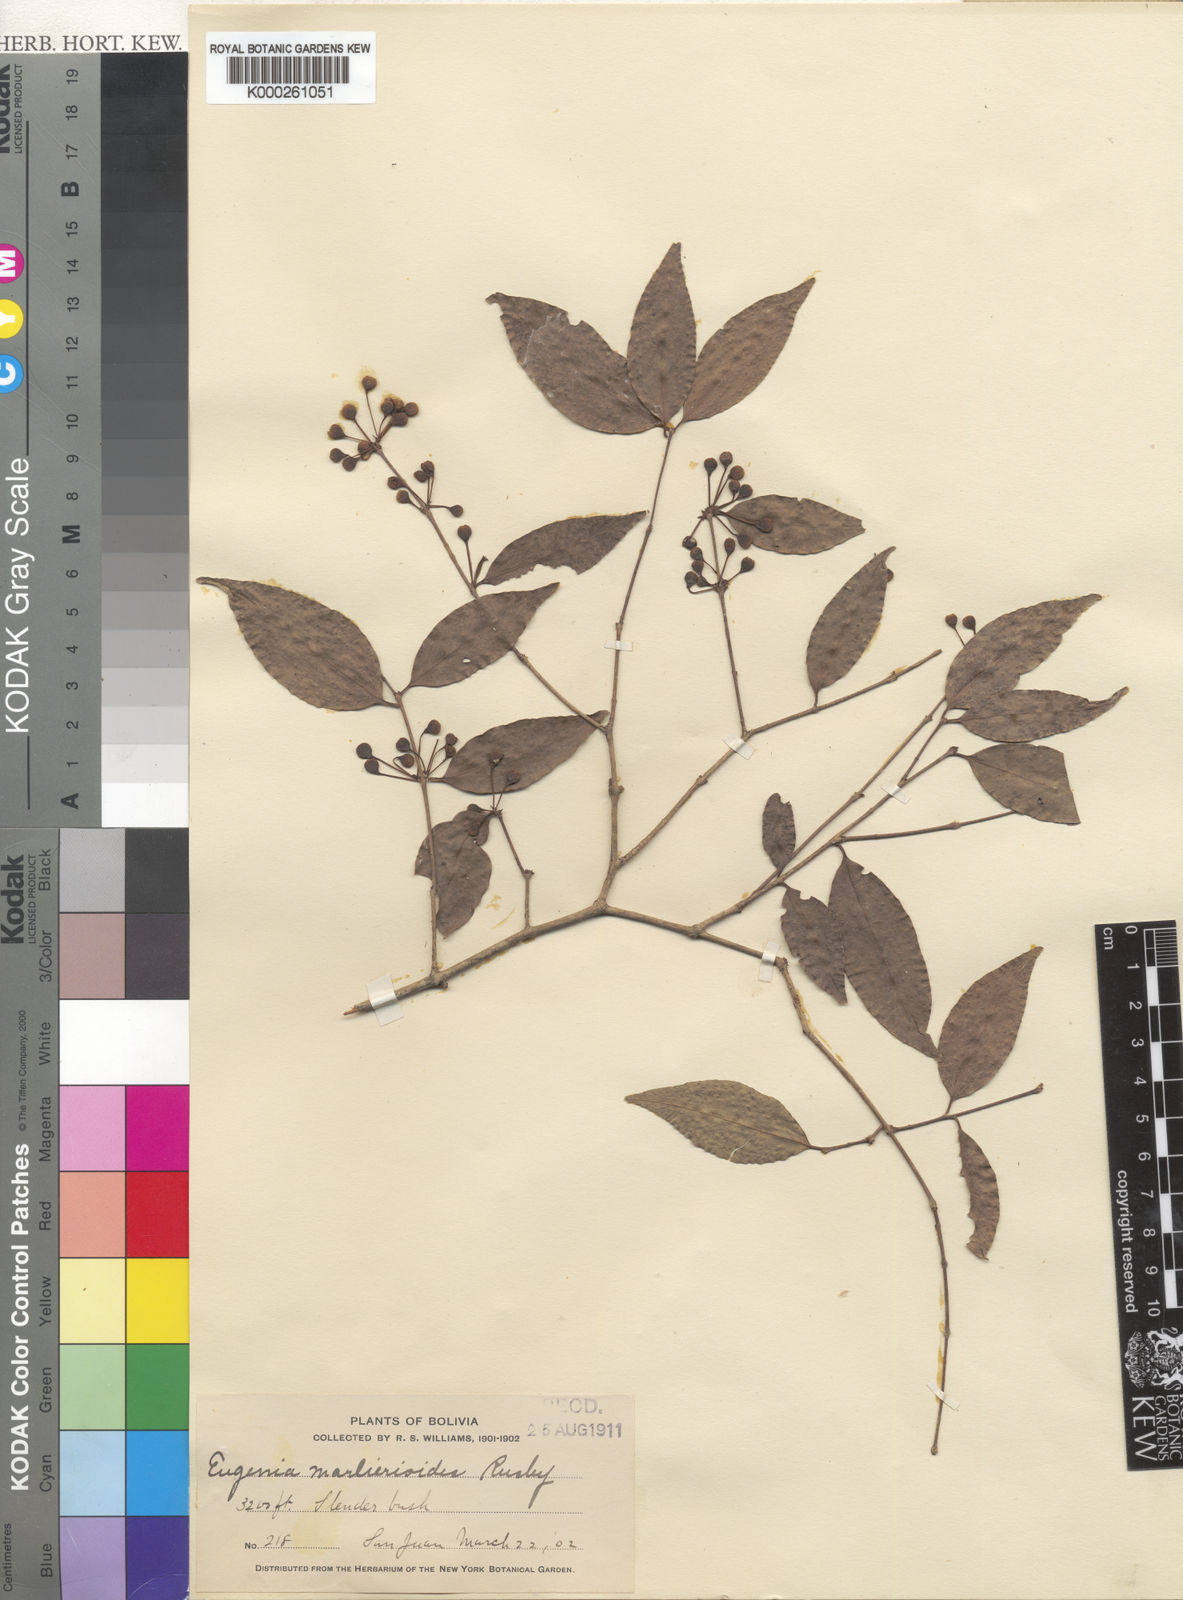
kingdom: Plantae
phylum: Tracheophyta
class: Magnoliopsida
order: Myrtales
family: Myrtaceae
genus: Eugenia
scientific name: Eugenia marlierioides
